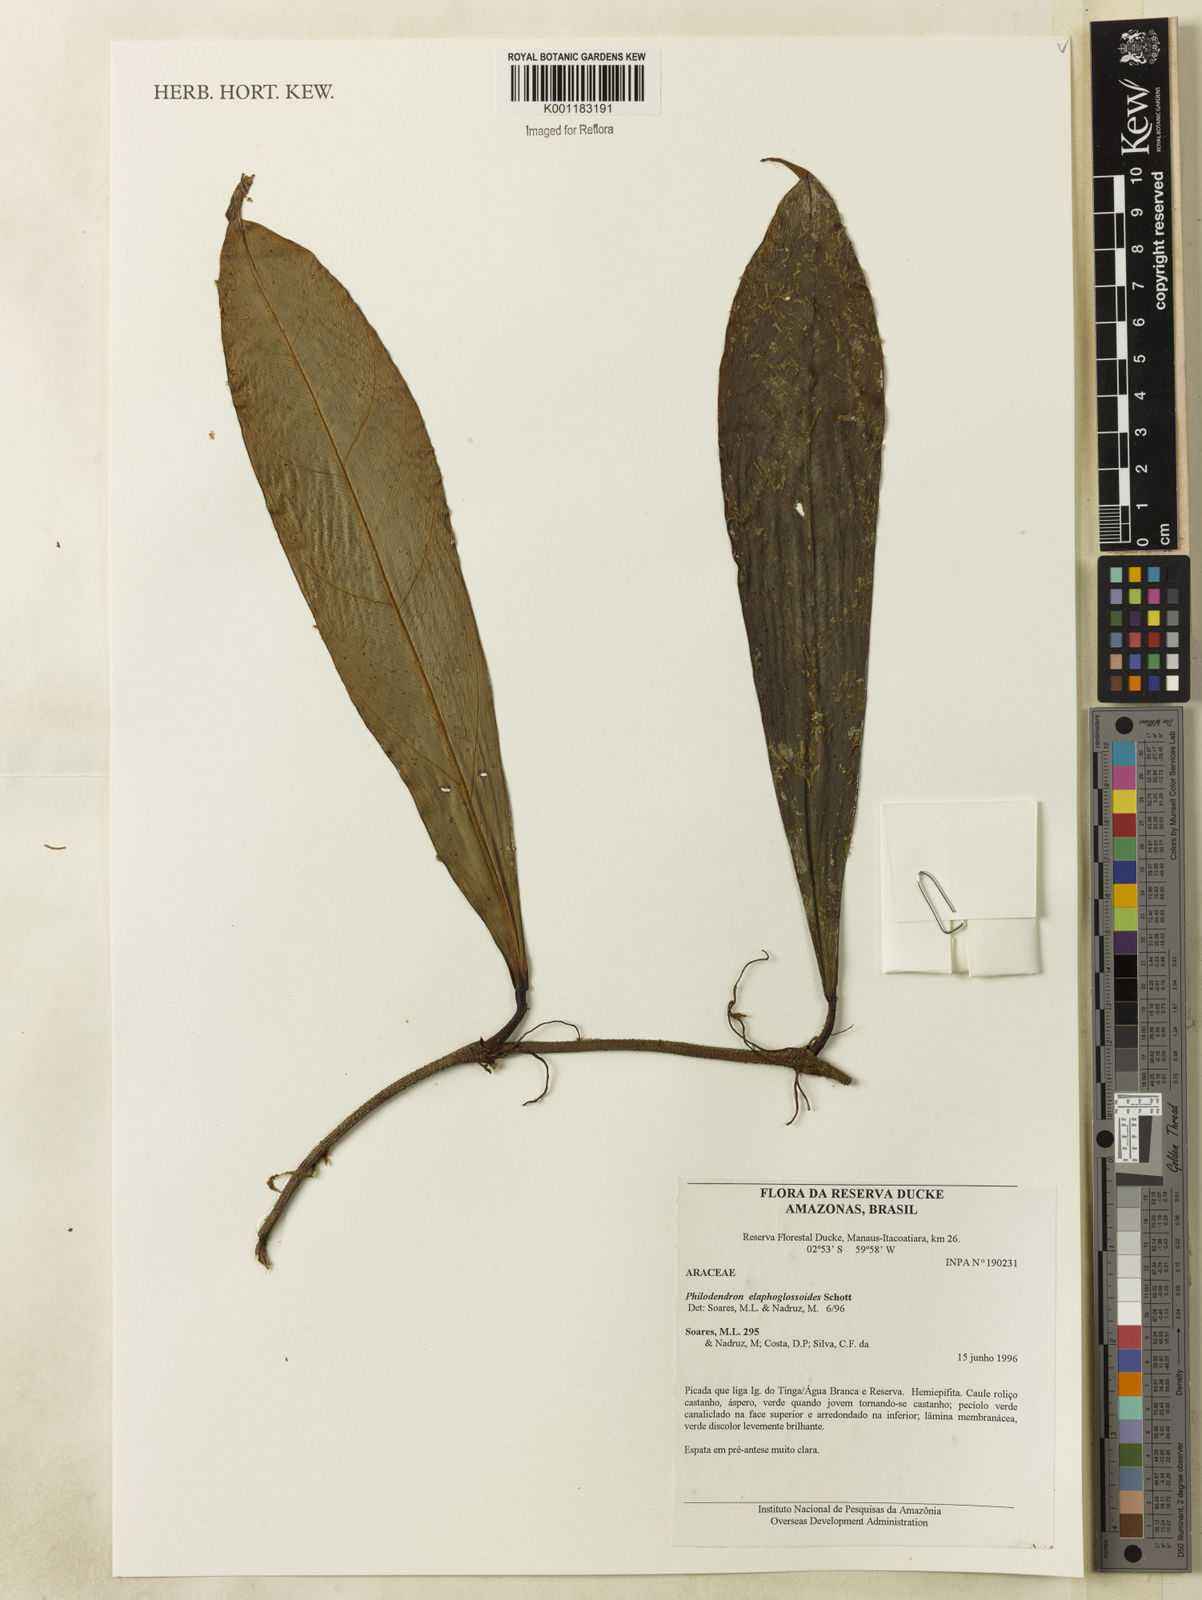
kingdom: Plantae
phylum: Tracheophyta
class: Liliopsida
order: Alismatales
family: Araceae
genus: Philodendron
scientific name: Philodendron elaphoglossoides
